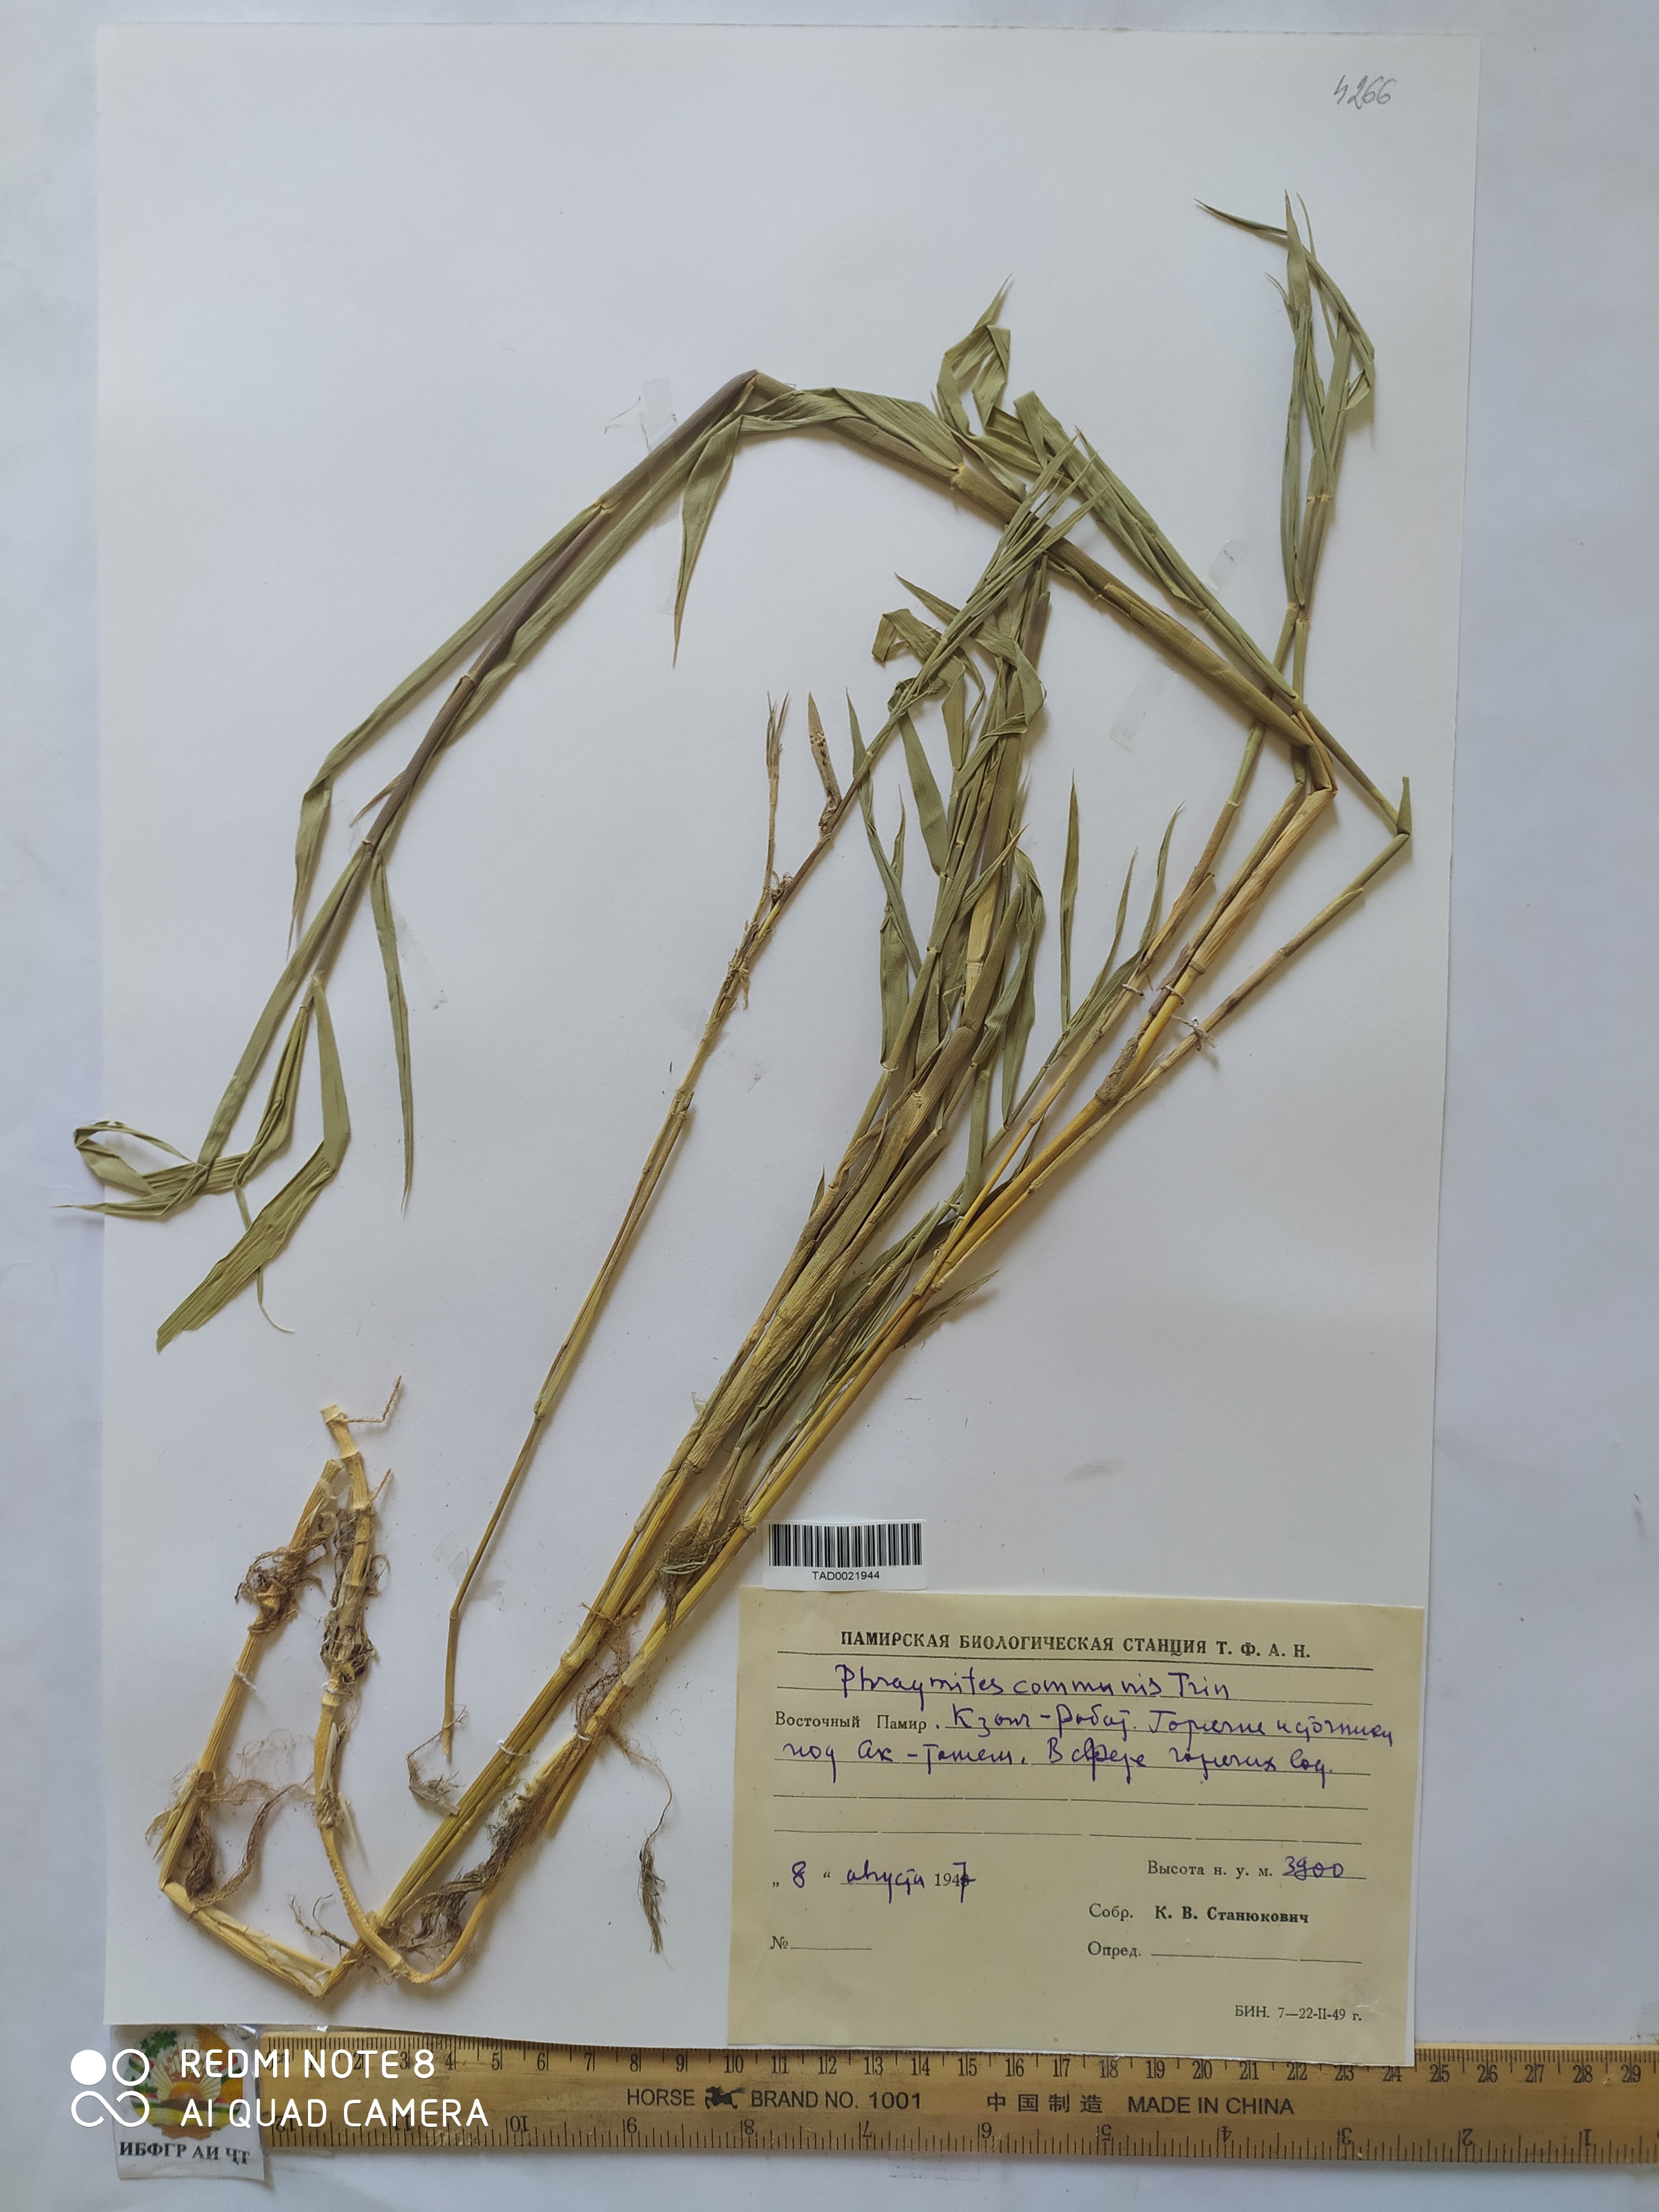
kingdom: Plantae
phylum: Tracheophyta
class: Liliopsida
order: Poales
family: Poaceae
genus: Phragmites
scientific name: Phragmites australis
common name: Common reed
